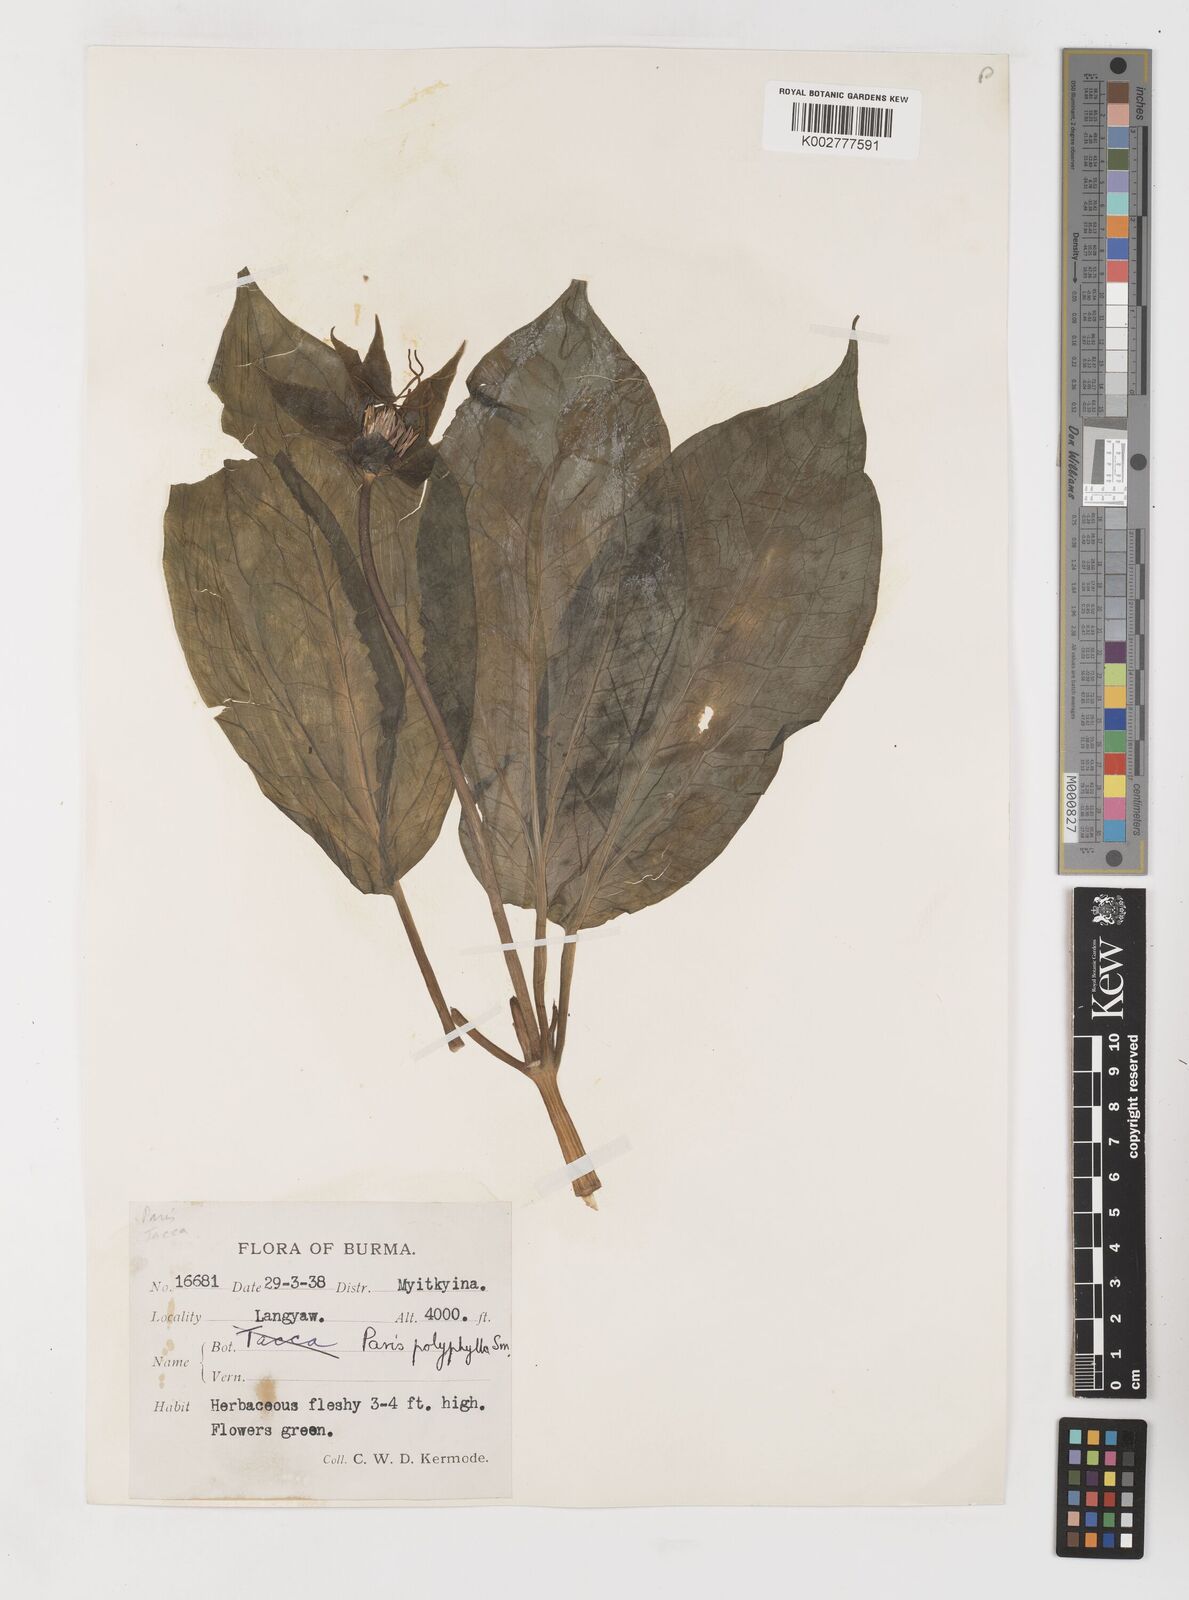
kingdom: Plantae
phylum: Tracheophyta
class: Liliopsida
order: Liliales
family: Melanthiaceae
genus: Paris
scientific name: Paris polyphylla
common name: Love apple
